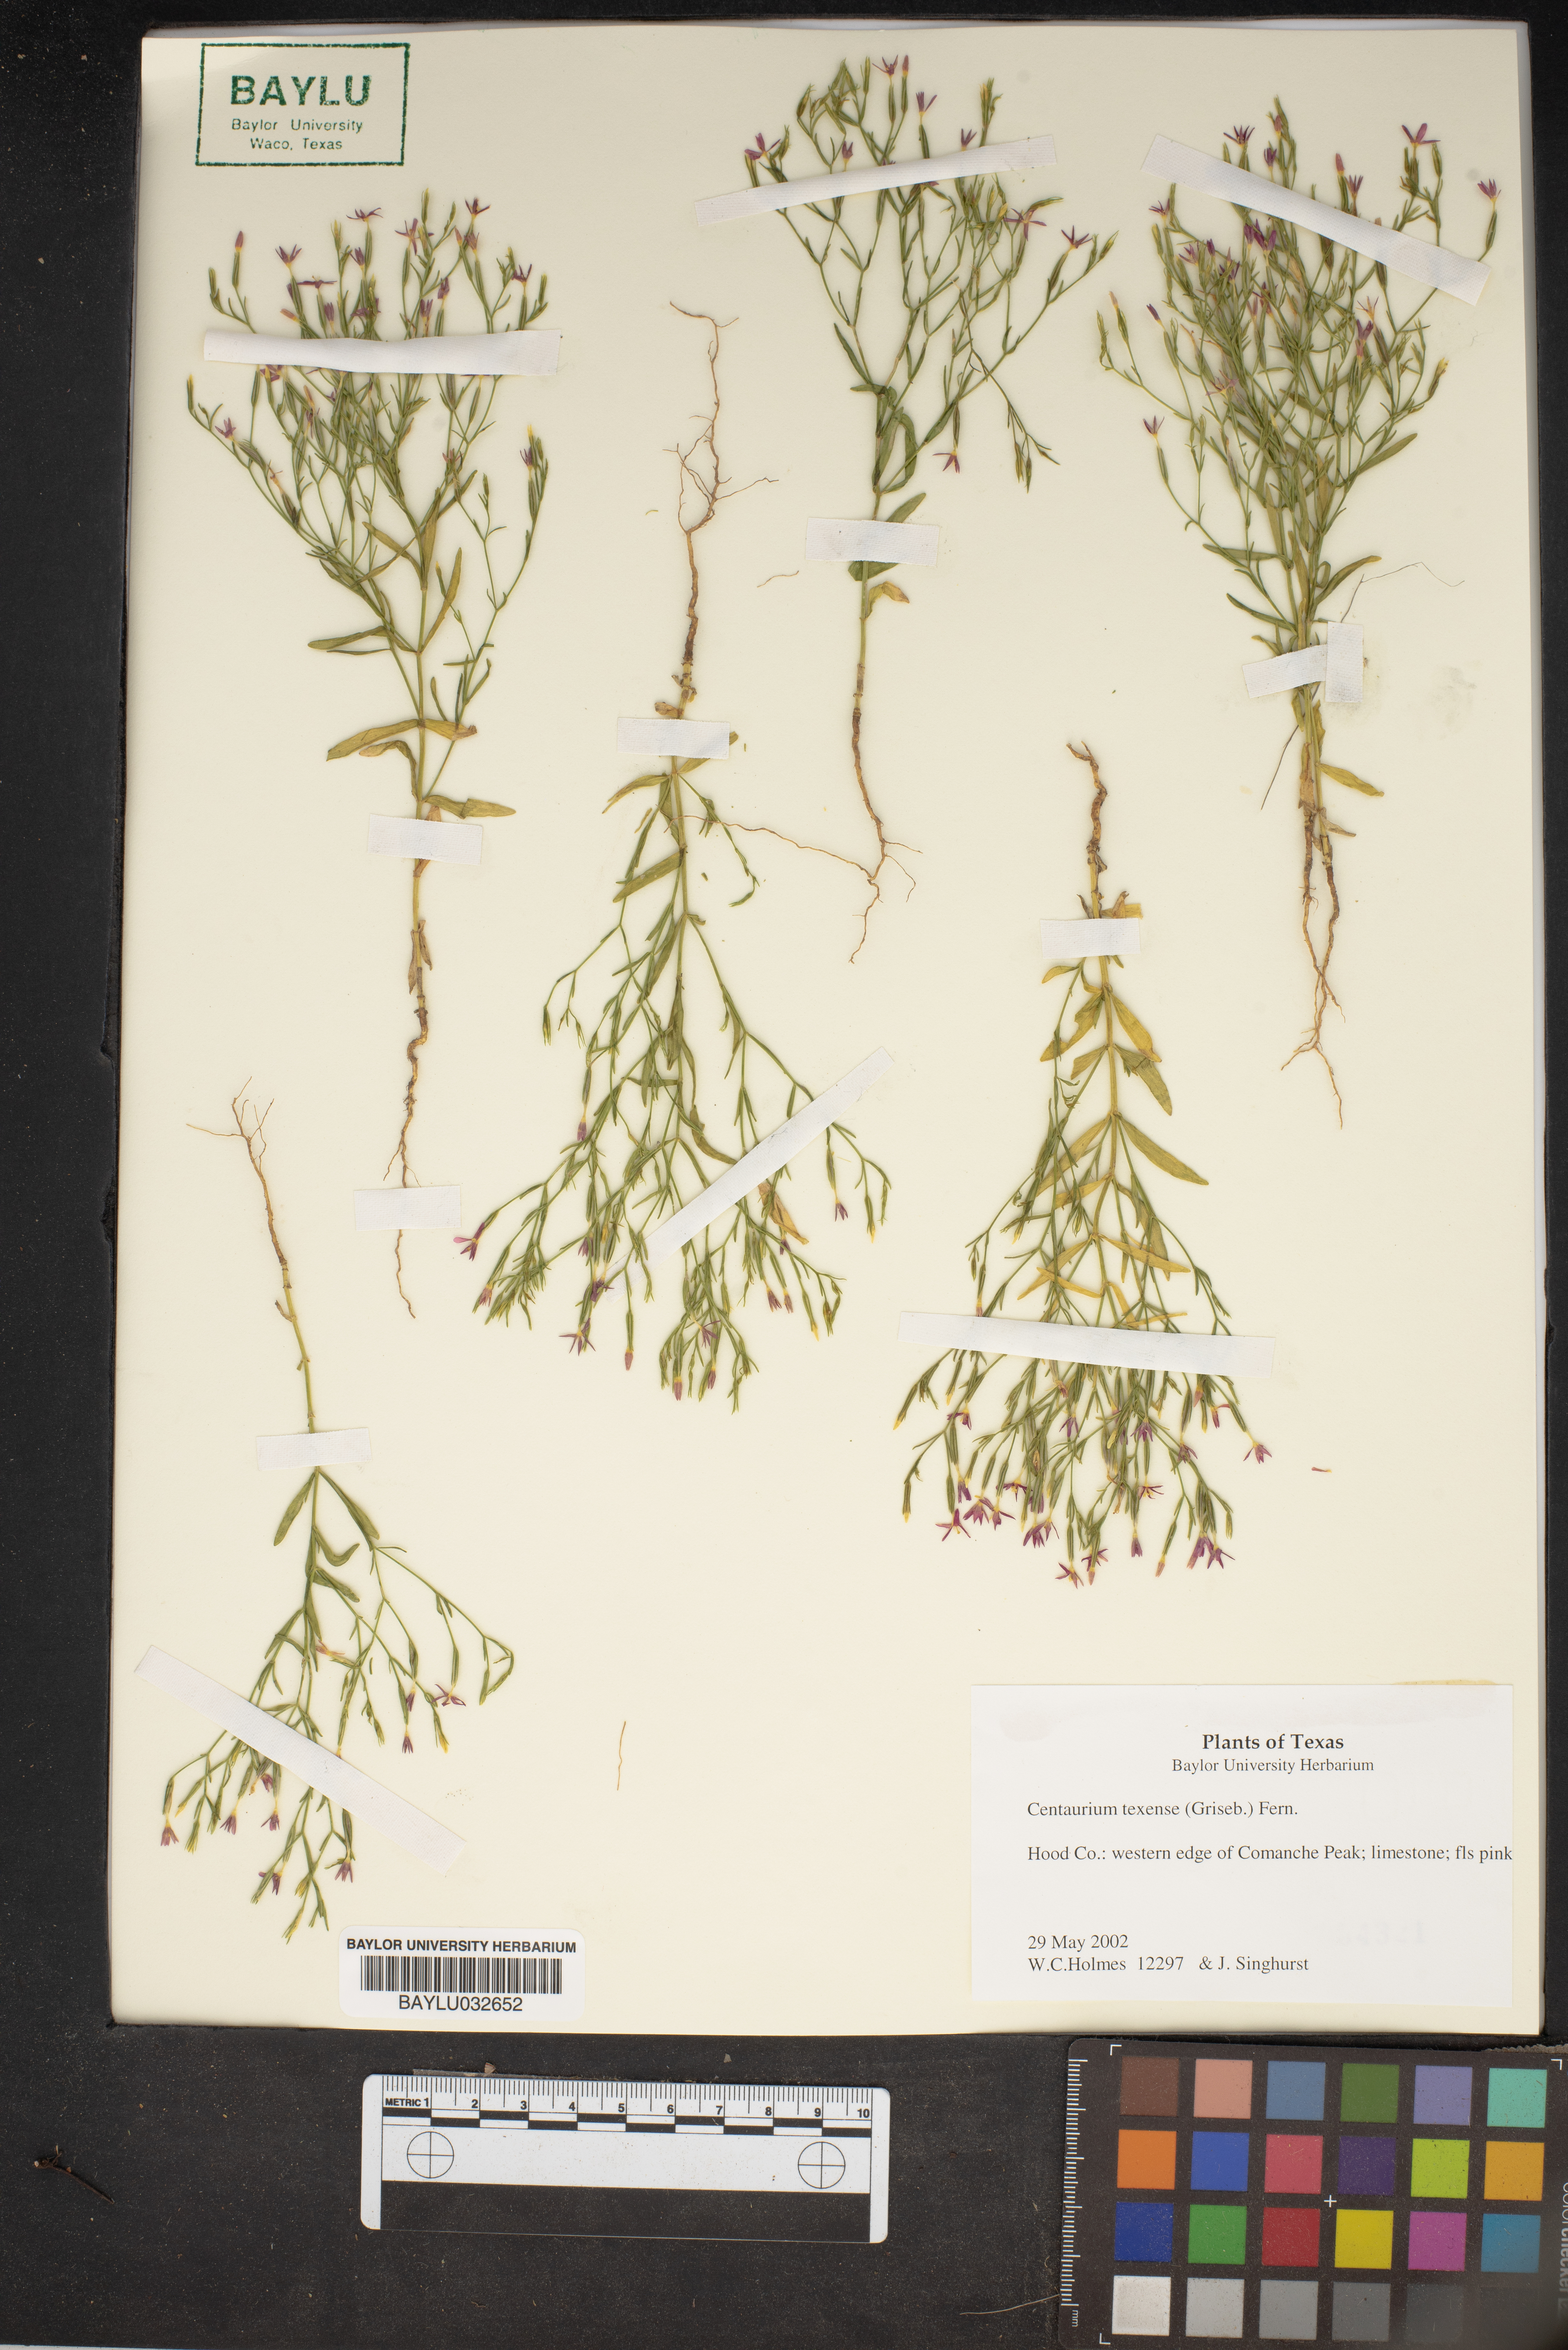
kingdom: Plantae
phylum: Tracheophyta
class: Magnoliopsida
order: Gentianales
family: Gentianaceae
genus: Zeltnera
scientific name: Zeltnera texensis
